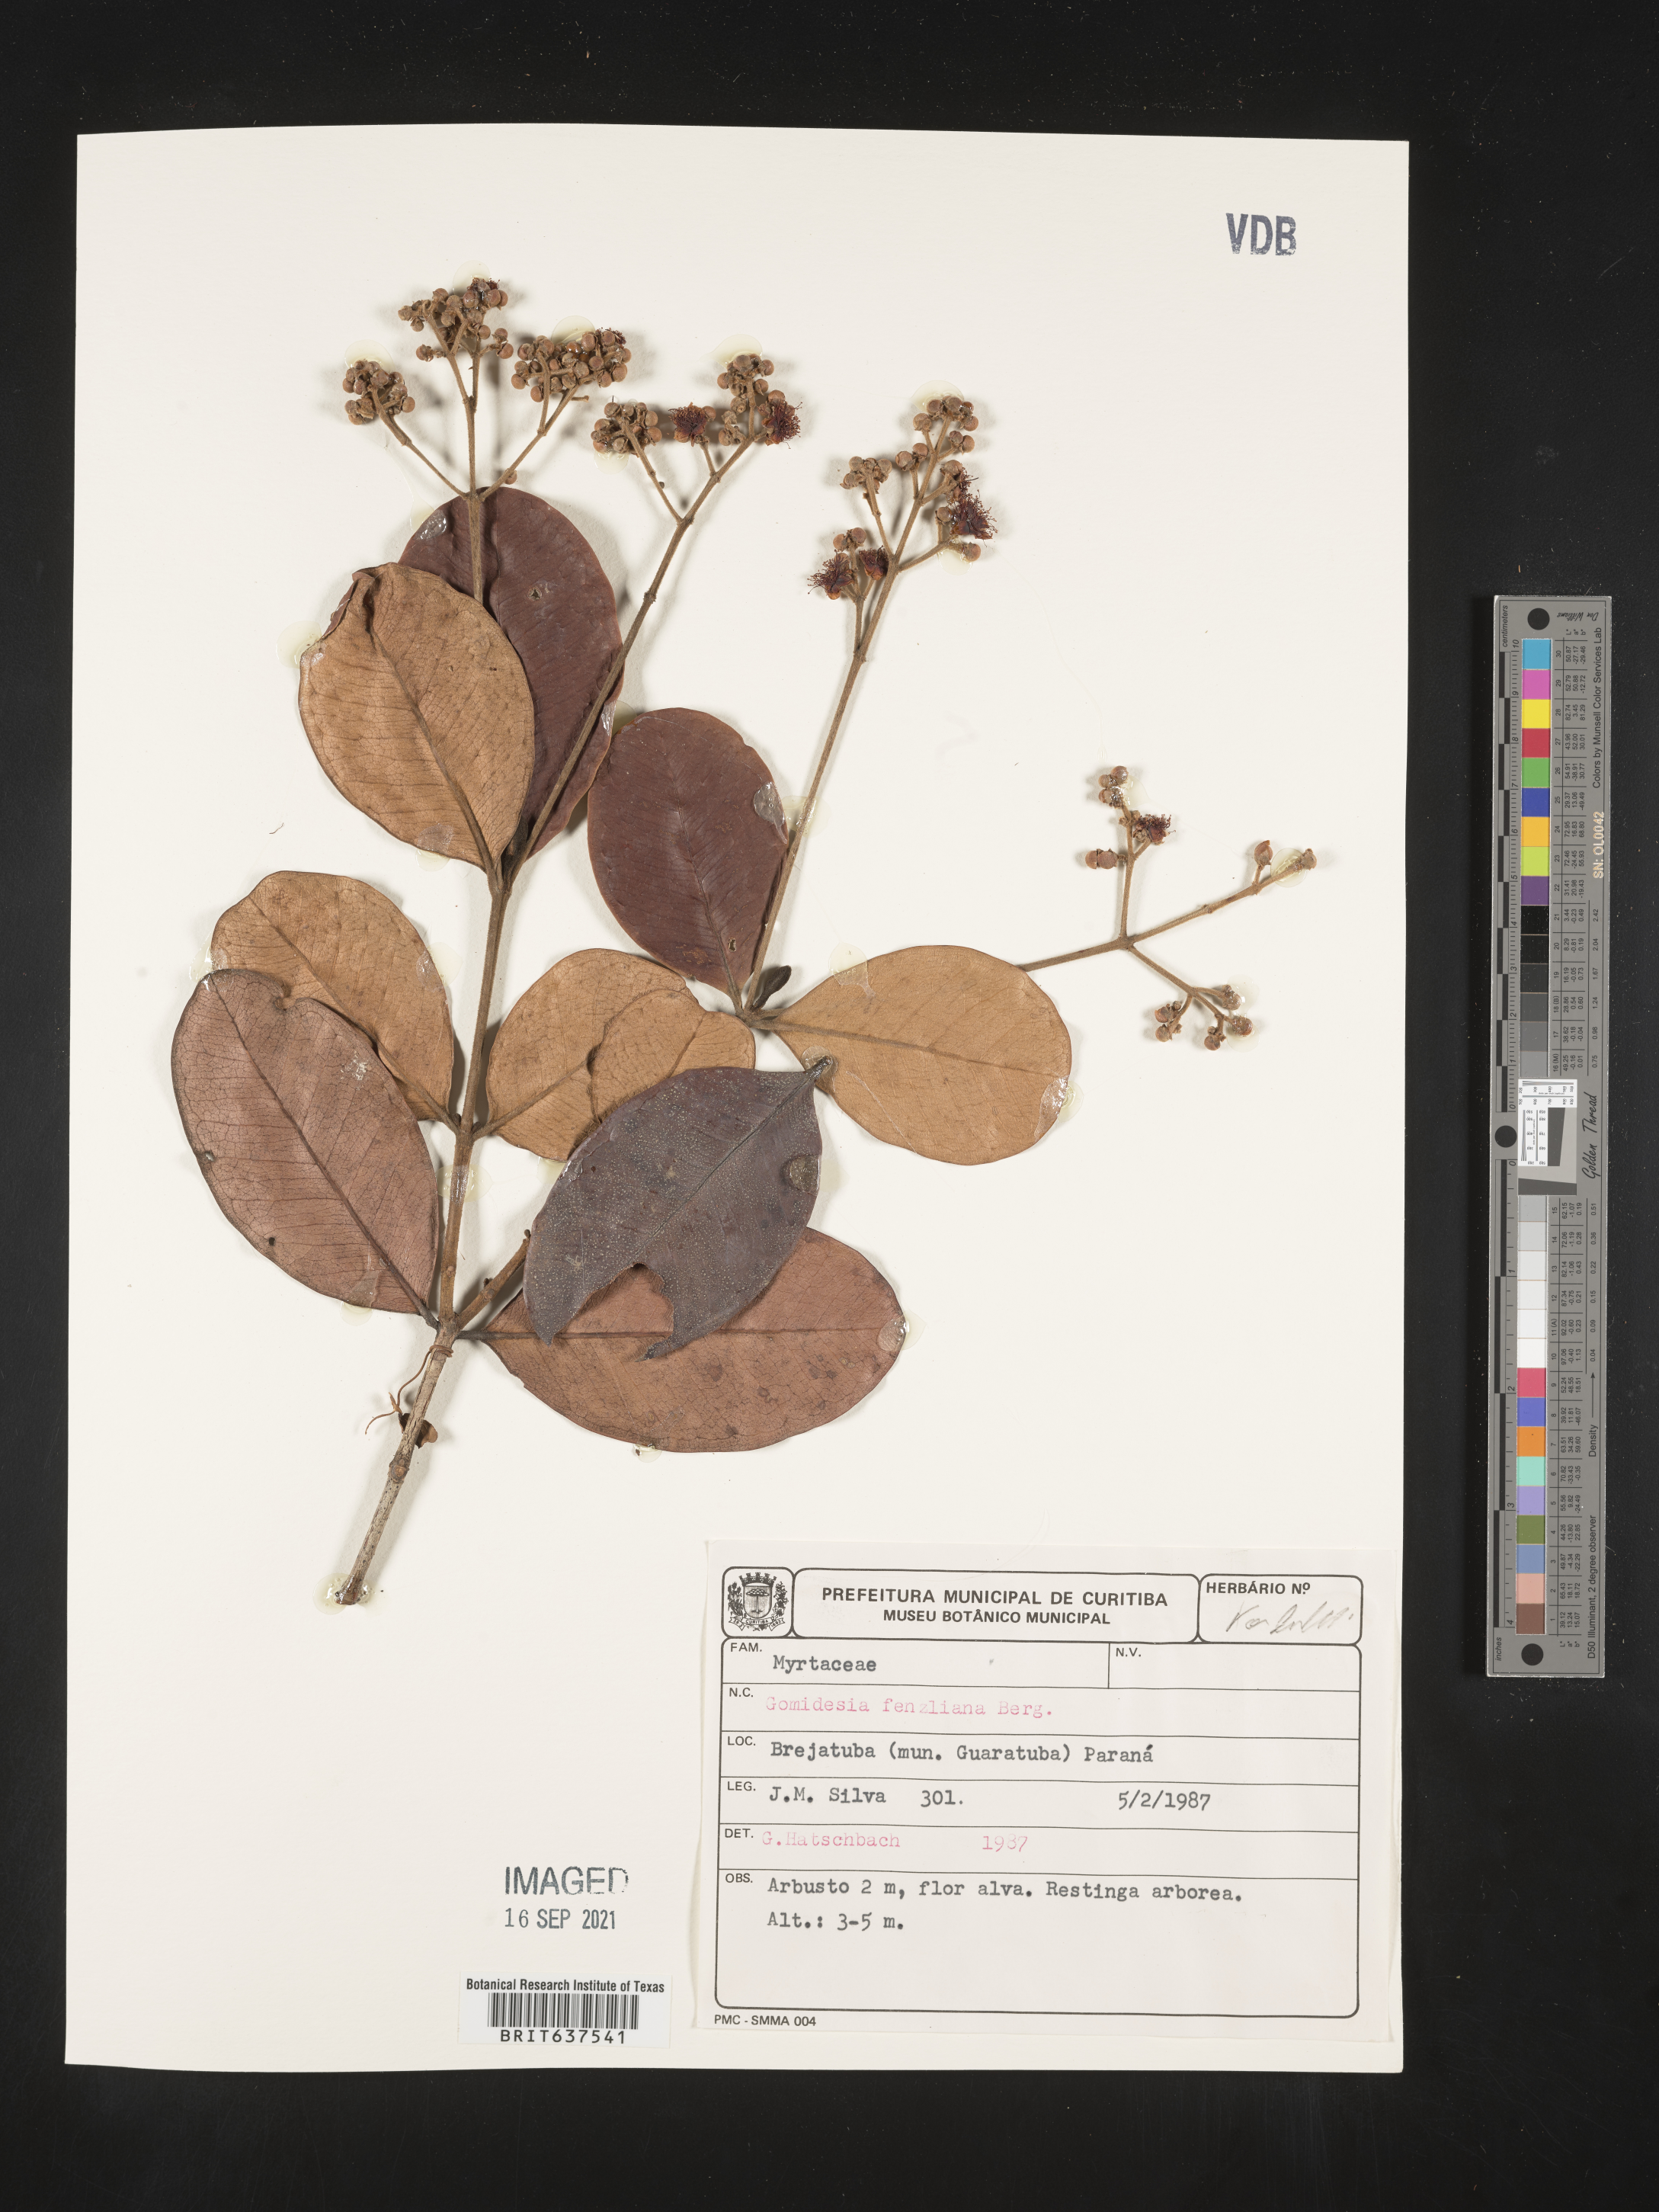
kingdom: Plantae
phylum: Tracheophyta
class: Magnoliopsida
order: Myrtales
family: Myrtaceae
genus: Myrcia
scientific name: Myrcia
